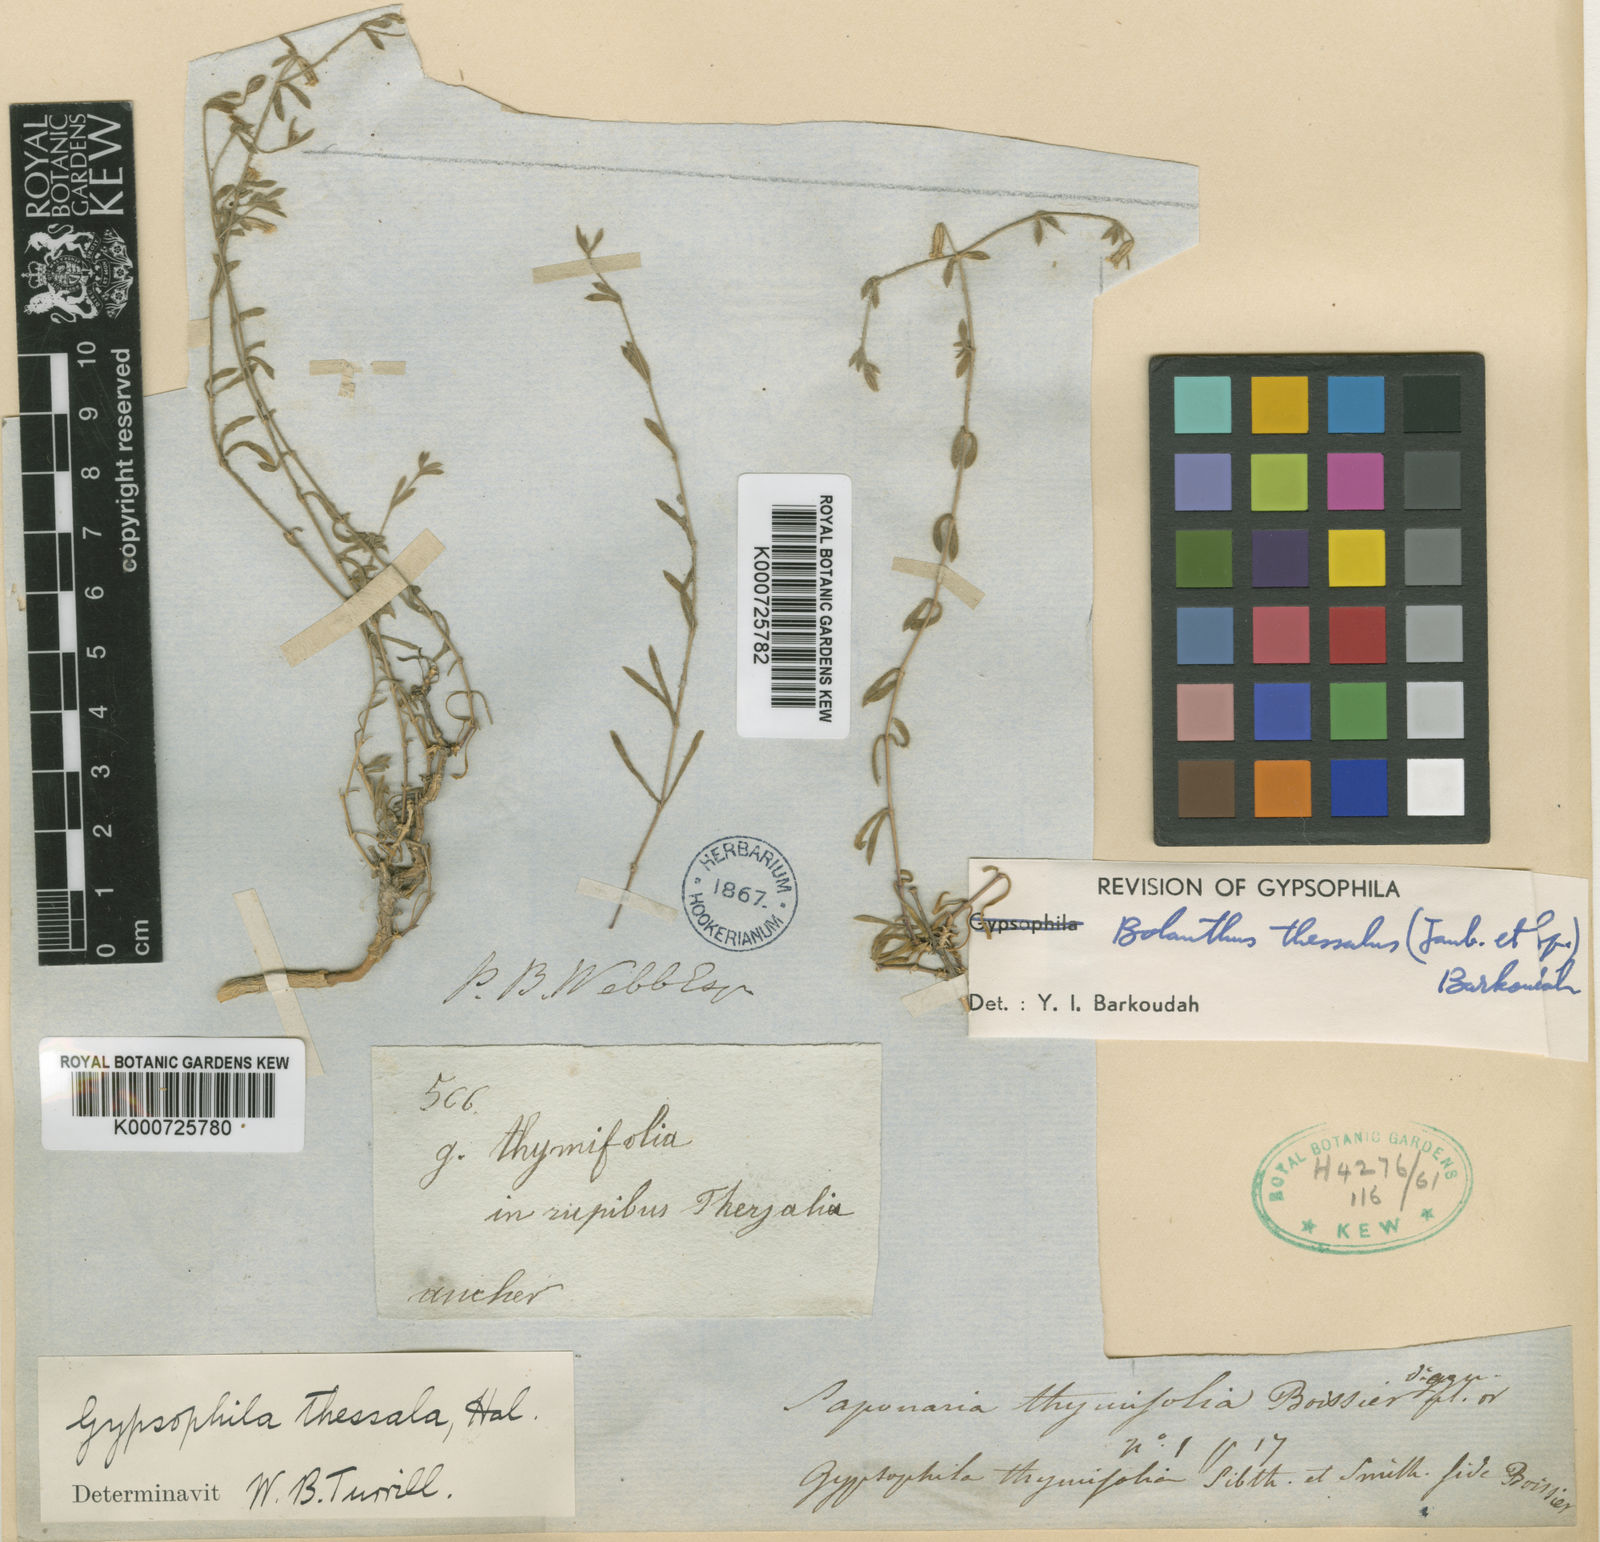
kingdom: Plantae
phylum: Tracheophyta
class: Magnoliopsida
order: Caryophyllales
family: Caryophyllaceae
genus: Graecobolanthus
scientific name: Graecobolanthus thessalus
